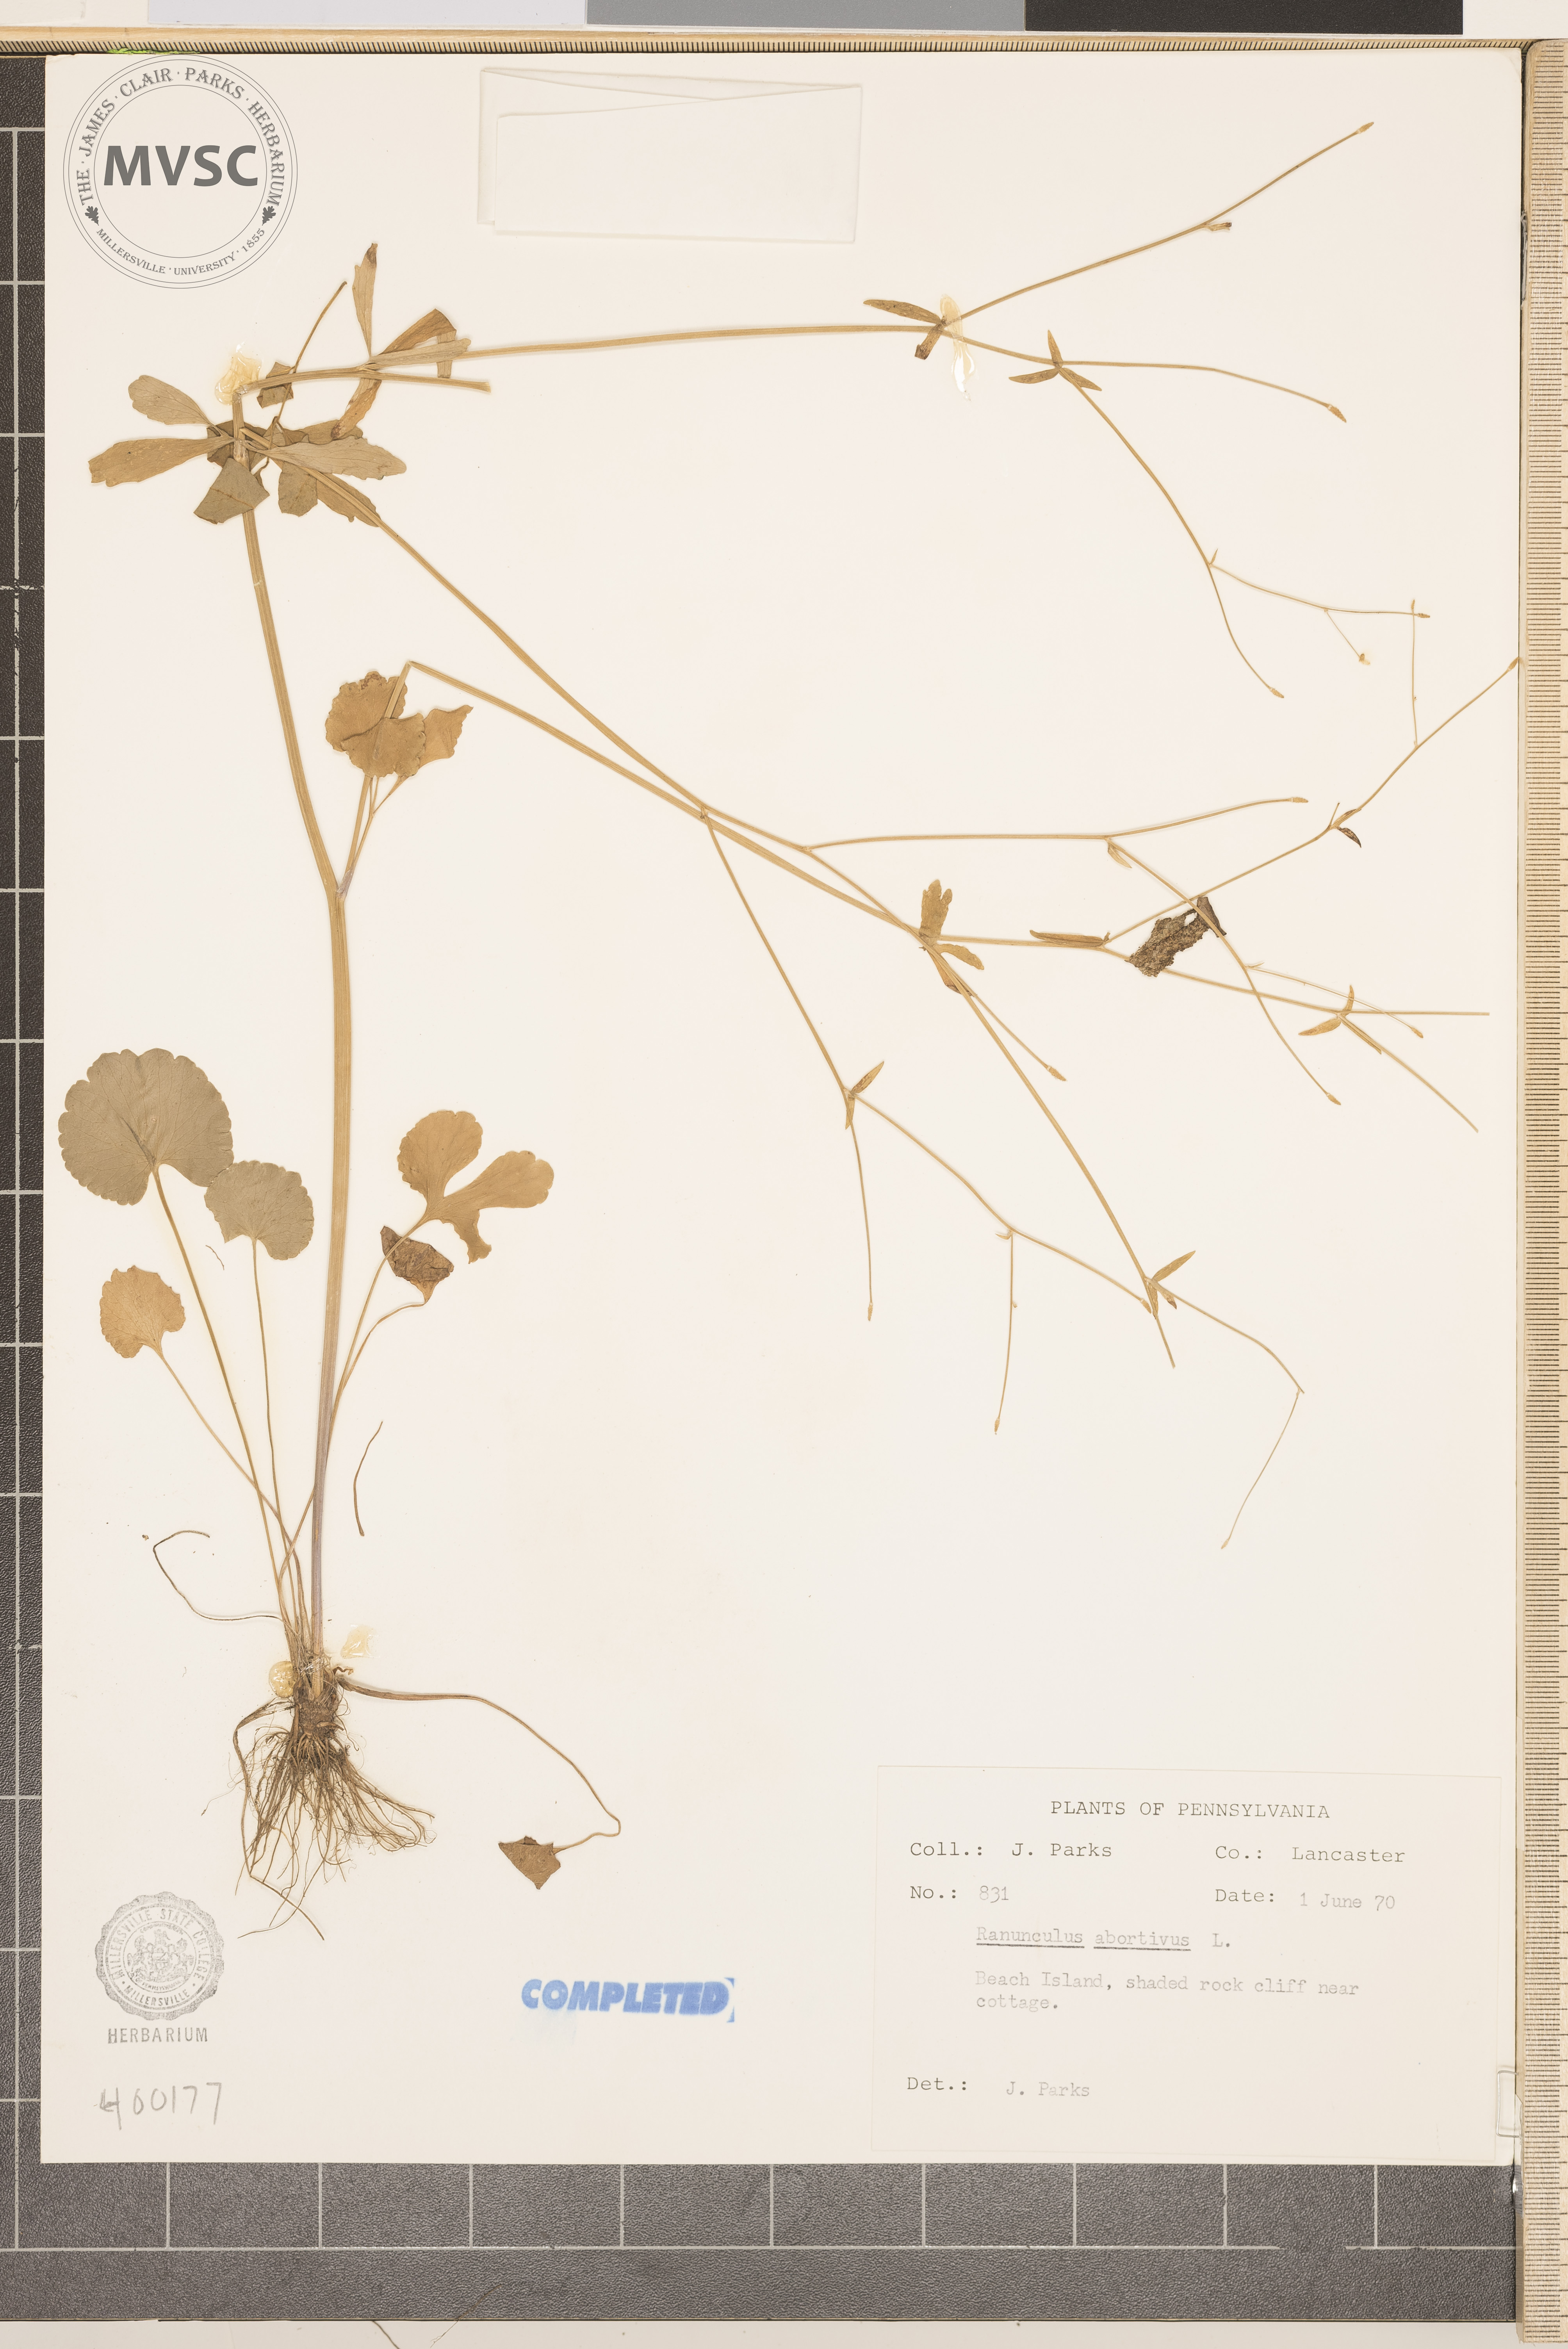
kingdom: Plantae
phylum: Tracheophyta
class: Magnoliopsida
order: Ranunculales
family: Ranunculaceae
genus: Ranunculus
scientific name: Ranunculus abortivus
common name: buttercup
